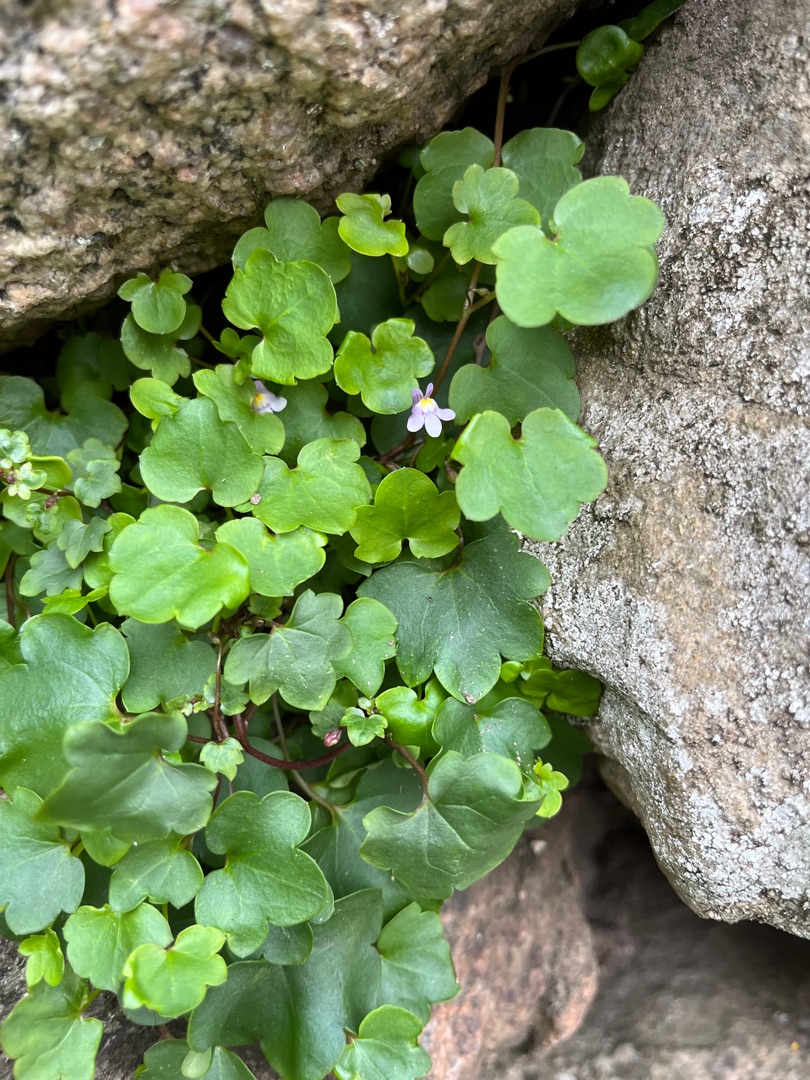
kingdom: Plantae
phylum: Tracheophyta
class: Magnoliopsida
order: Lamiales
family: Plantaginaceae
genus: Cymbalaria
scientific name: Cymbalaria muralis
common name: Vedbend-torskemund
